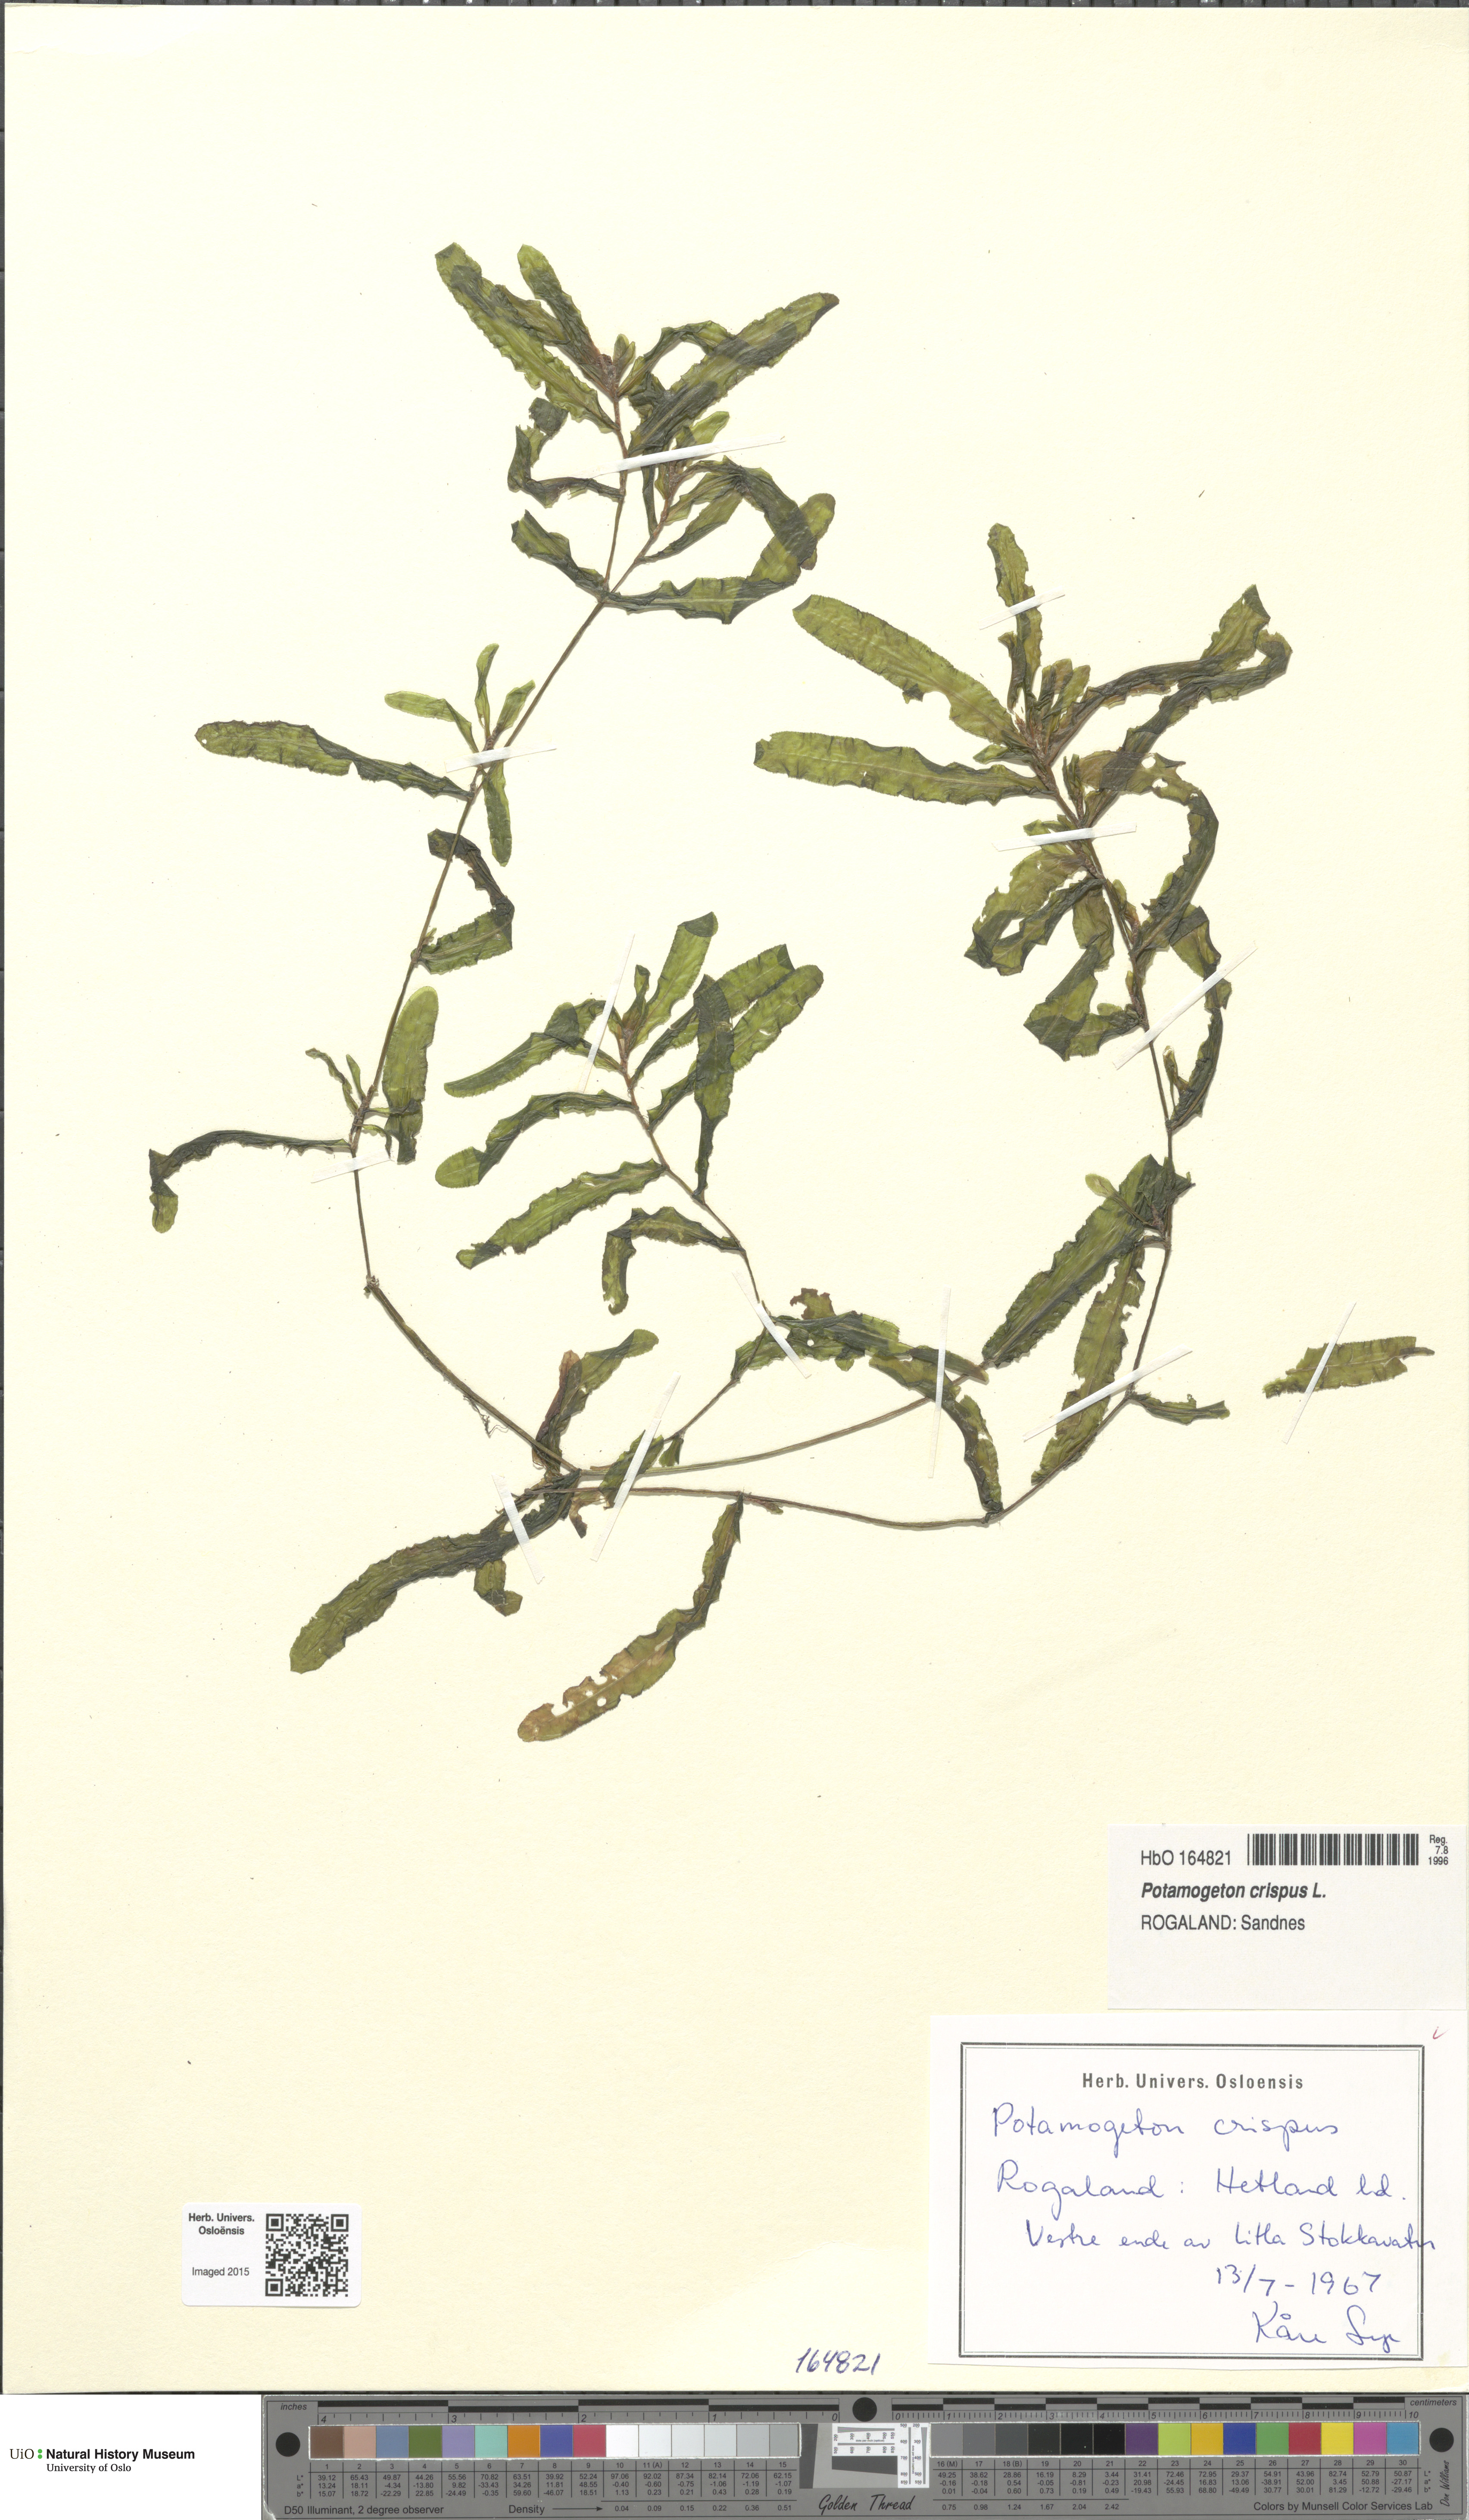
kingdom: Plantae
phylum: Tracheophyta
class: Liliopsida
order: Alismatales
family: Potamogetonaceae
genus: Potamogeton
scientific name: Potamogeton crispus
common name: Curled pondweed
